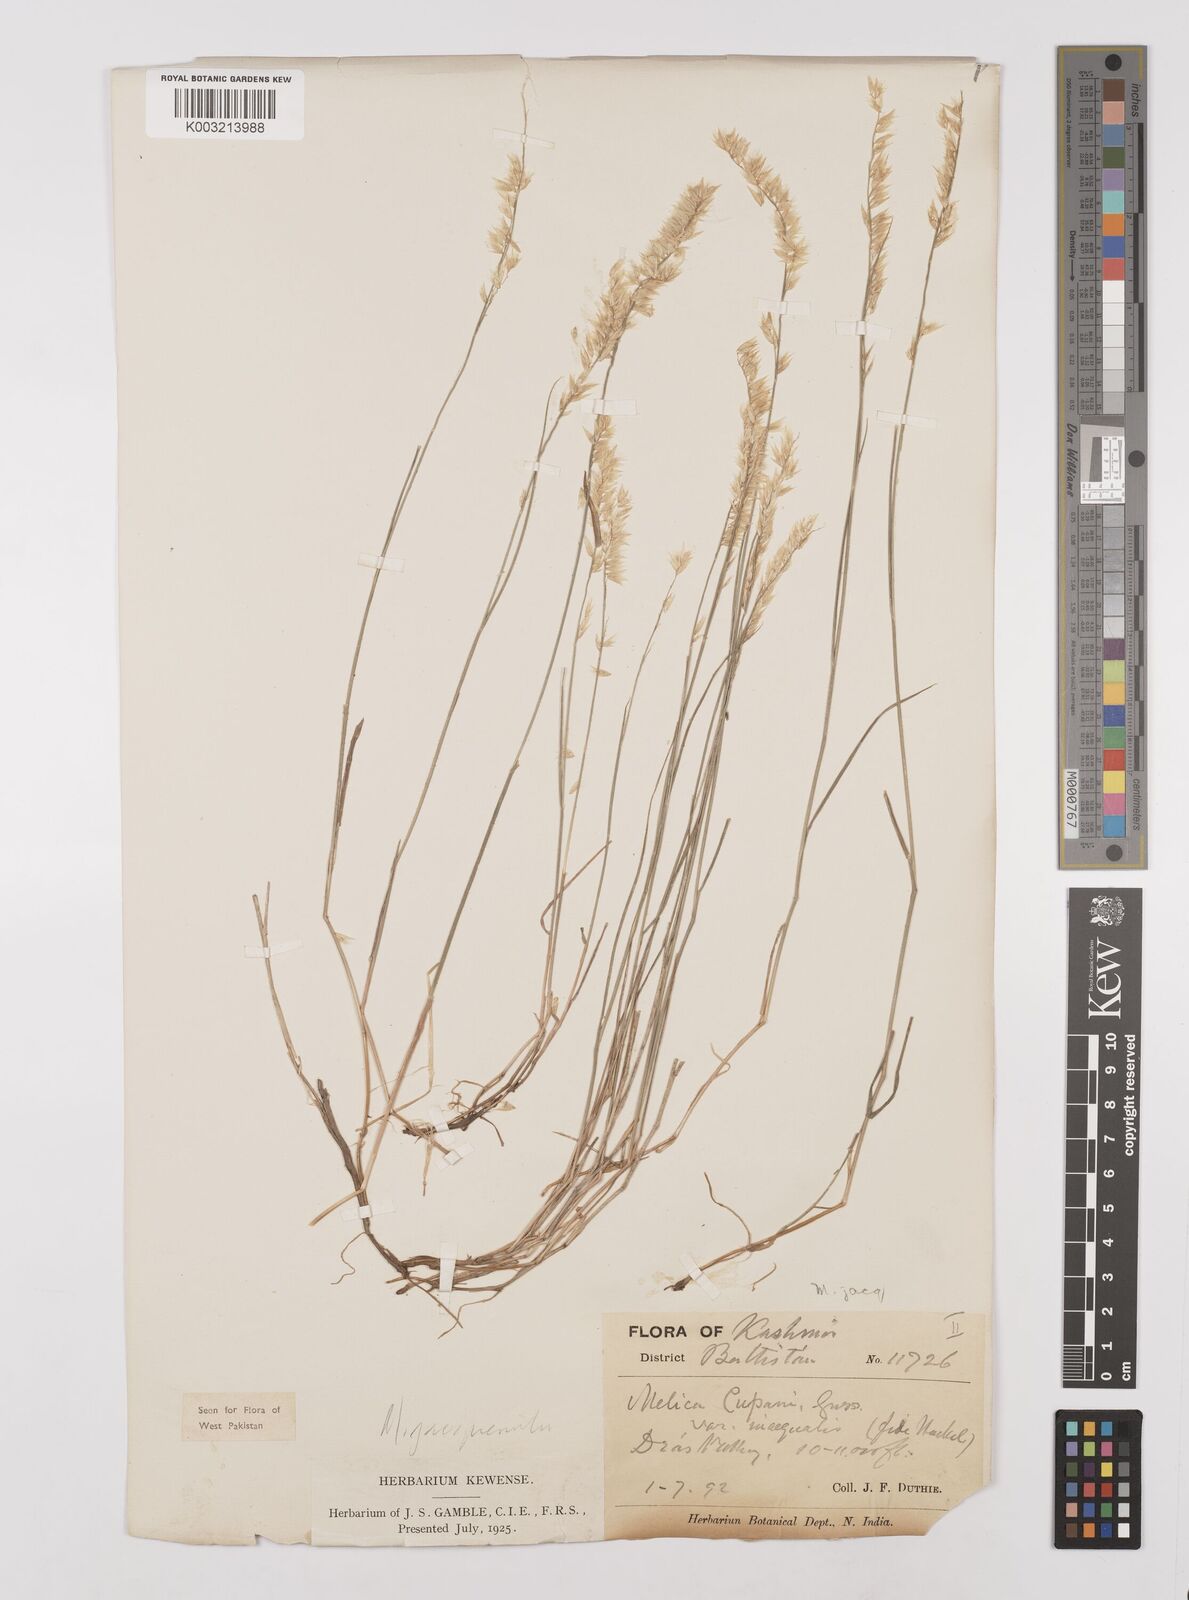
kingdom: Plantae
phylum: Tracheophyta
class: Liliopsida
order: Poales
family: Poaceae
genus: Melica
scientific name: Melica persica
